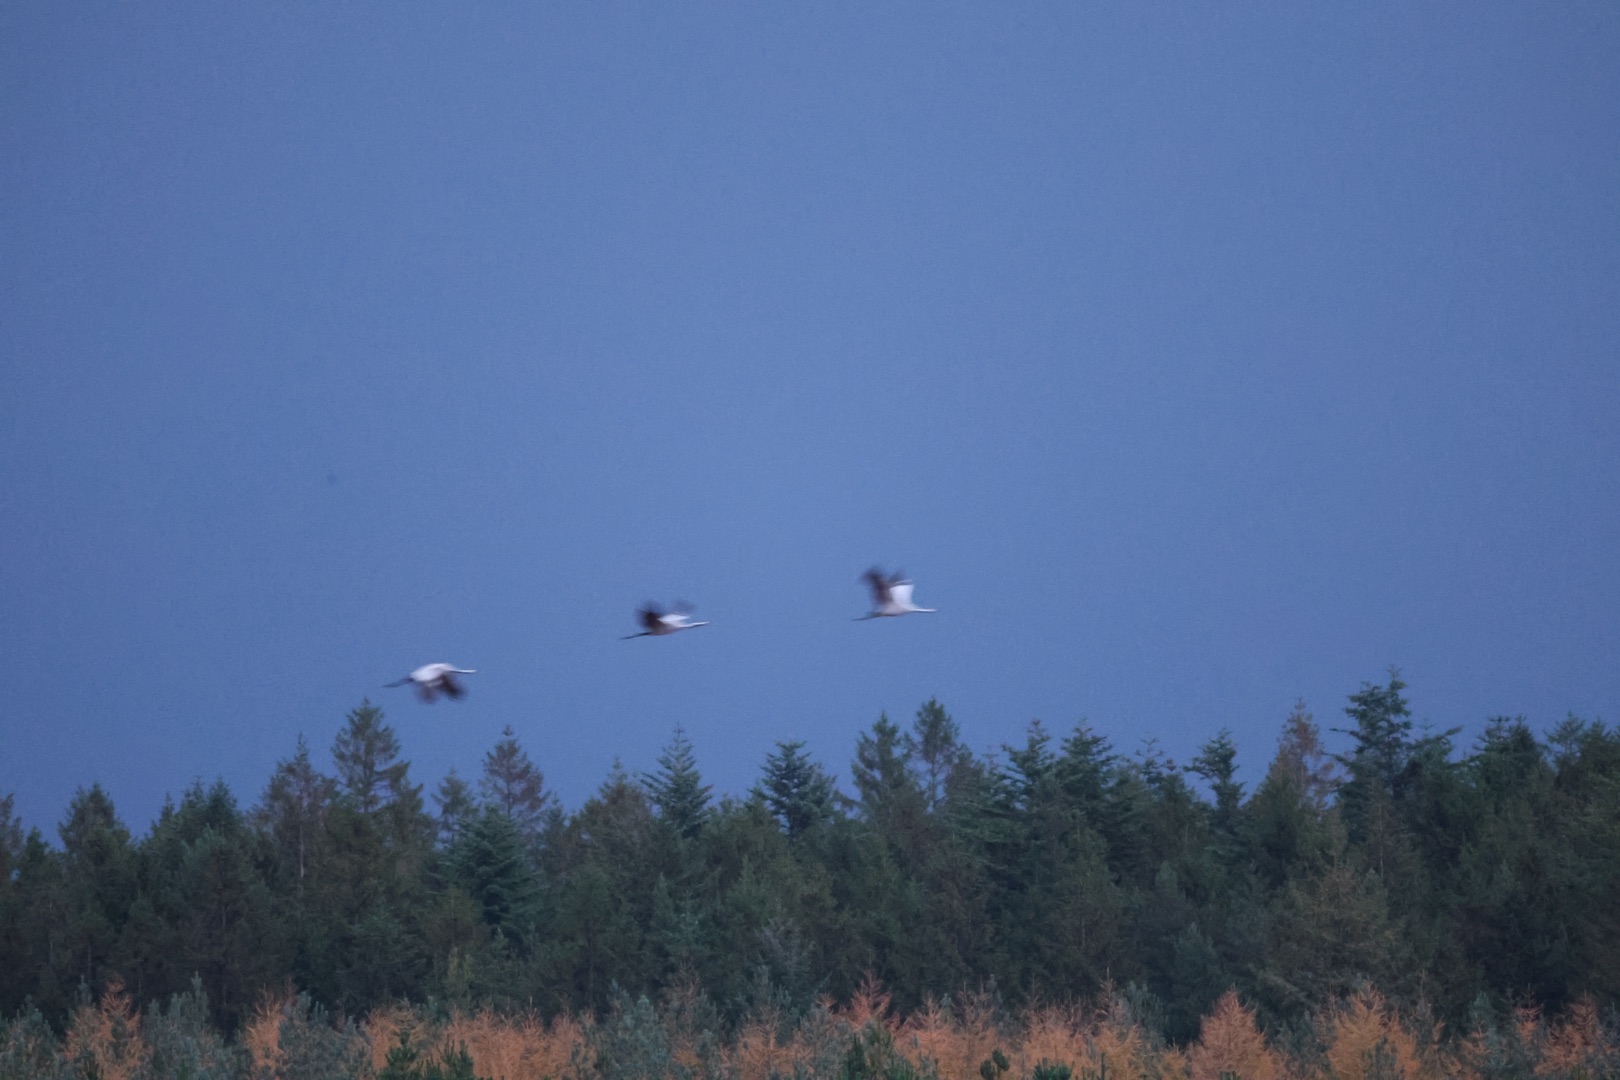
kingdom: Animalia
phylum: Chordata
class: Aves
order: Gruiformes
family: Gruidae
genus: Grus
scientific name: Grus grus
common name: Trane
